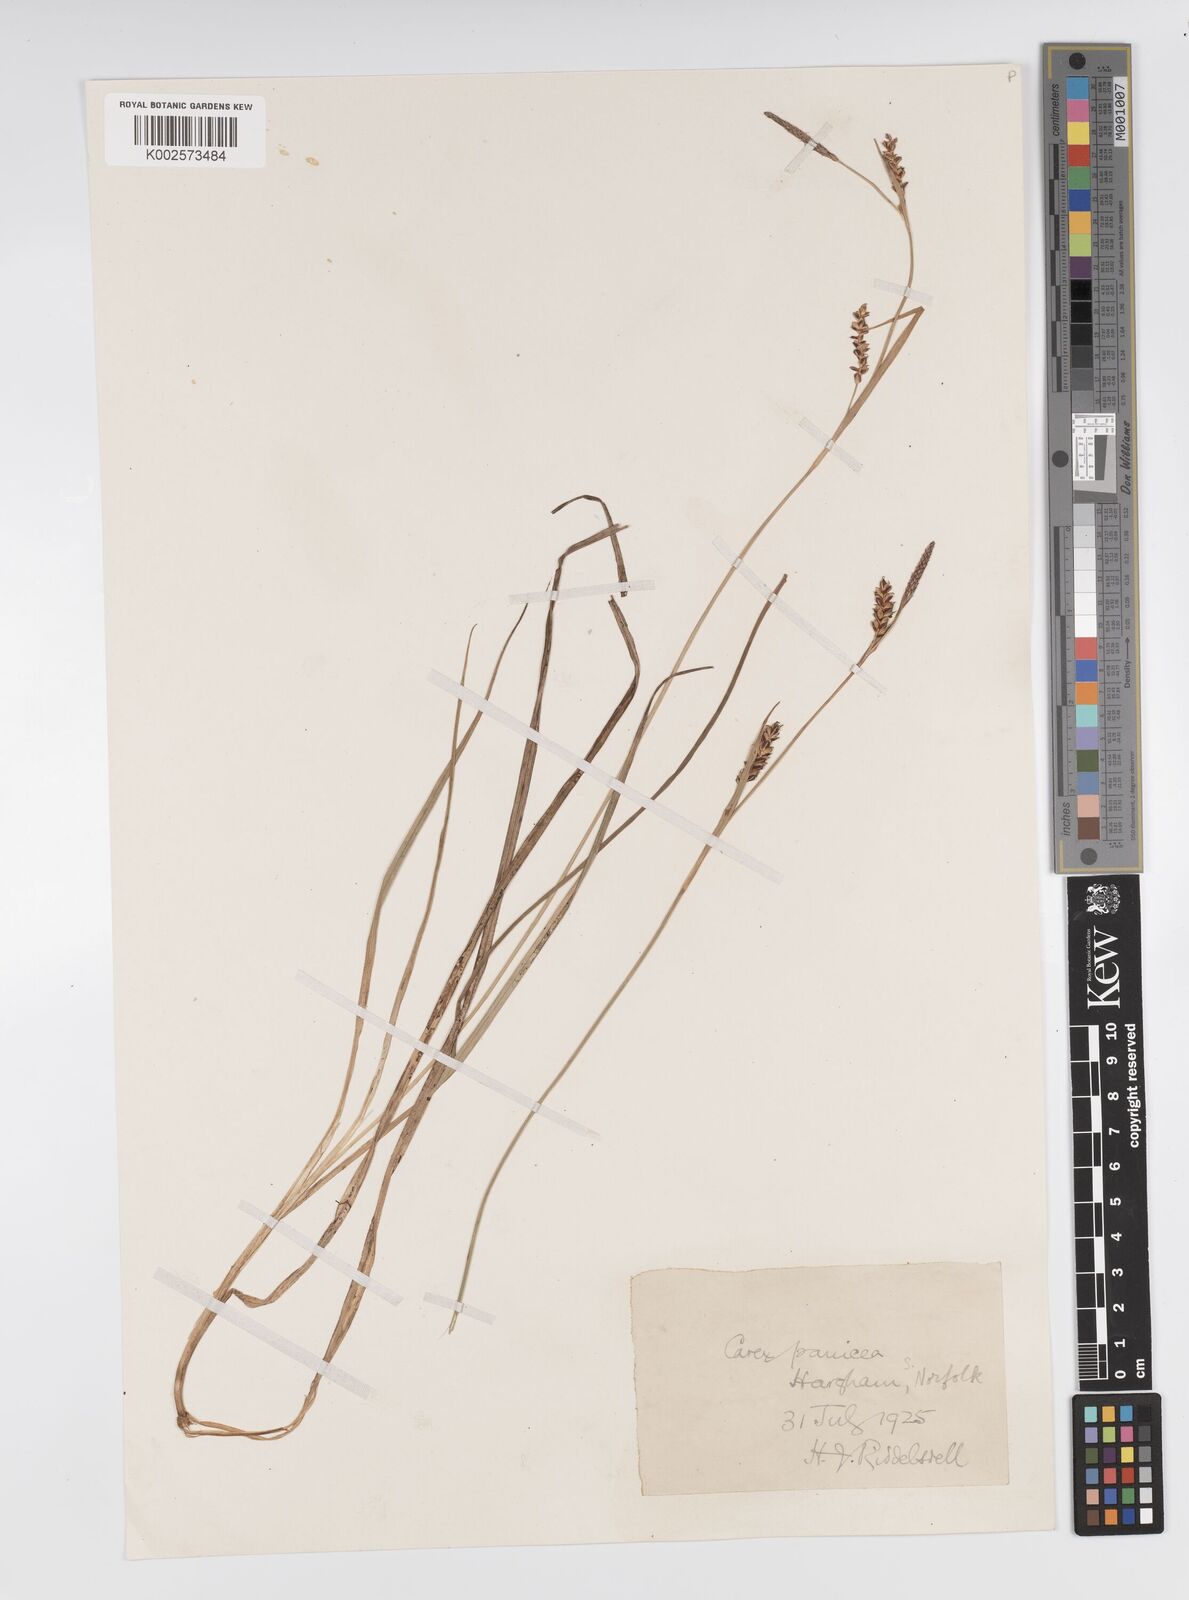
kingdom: Plantae
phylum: Tracheophyta
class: Liliopsida
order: Poales
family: Cyperaceae
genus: Carex
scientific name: Carex panicea
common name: Carnation sedge
